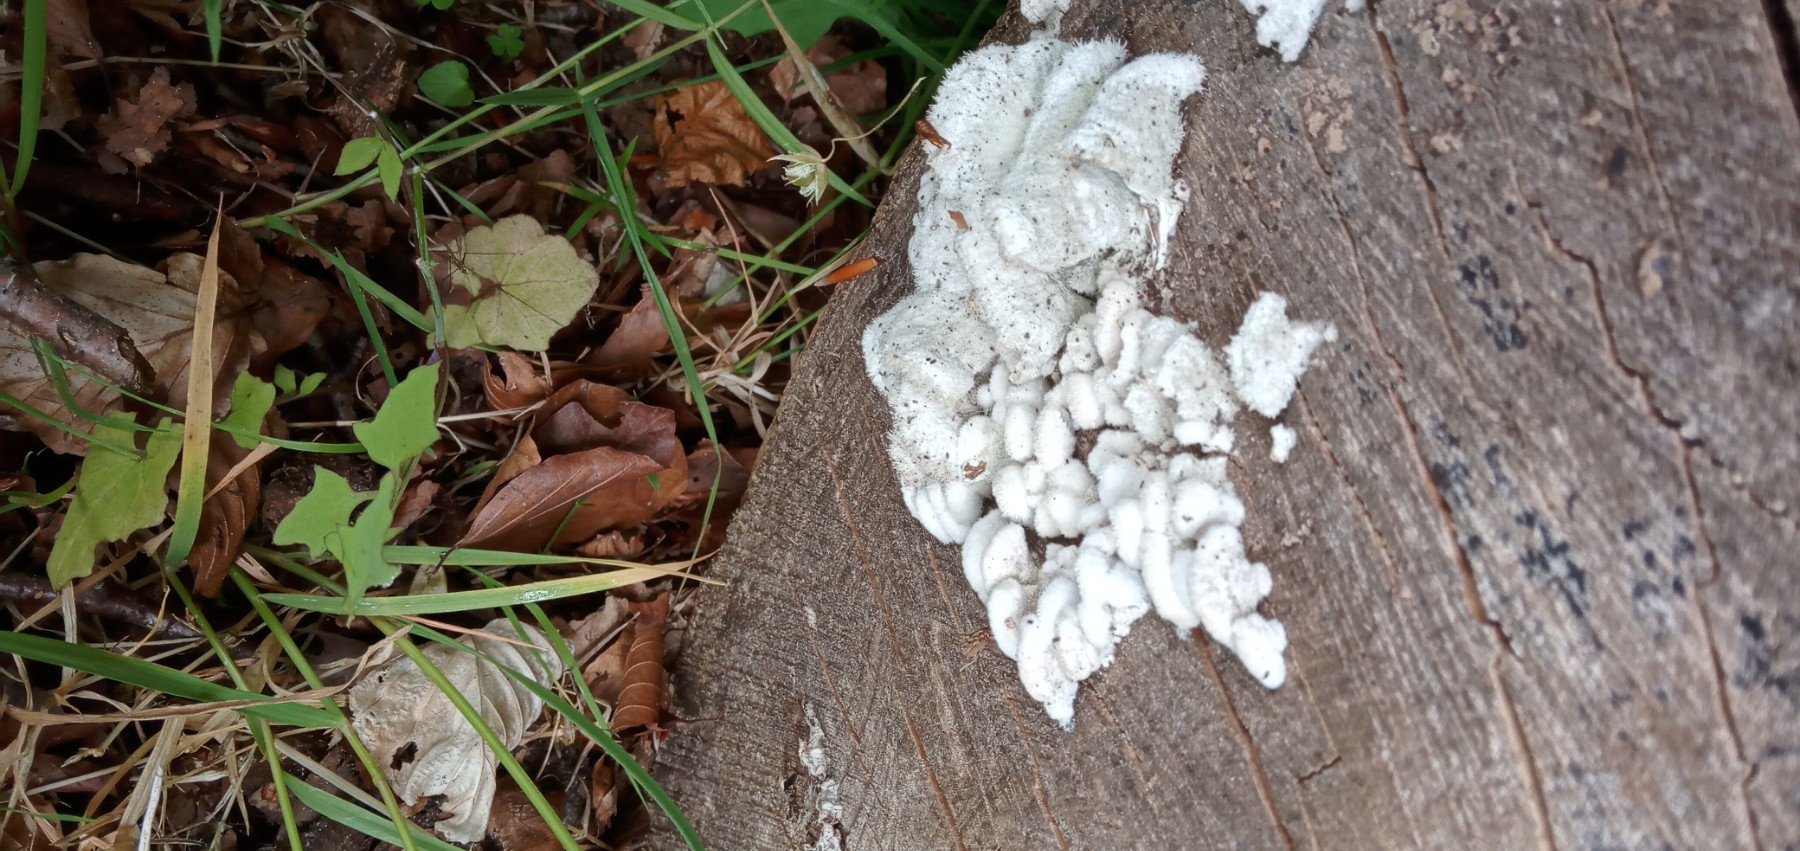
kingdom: Fungi
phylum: Basidiomycota
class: Agaricomycetes
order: Agaricales
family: Schizophyllaceae
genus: Schizophyllum
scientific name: Schizophyllum commune
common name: kløvblad
